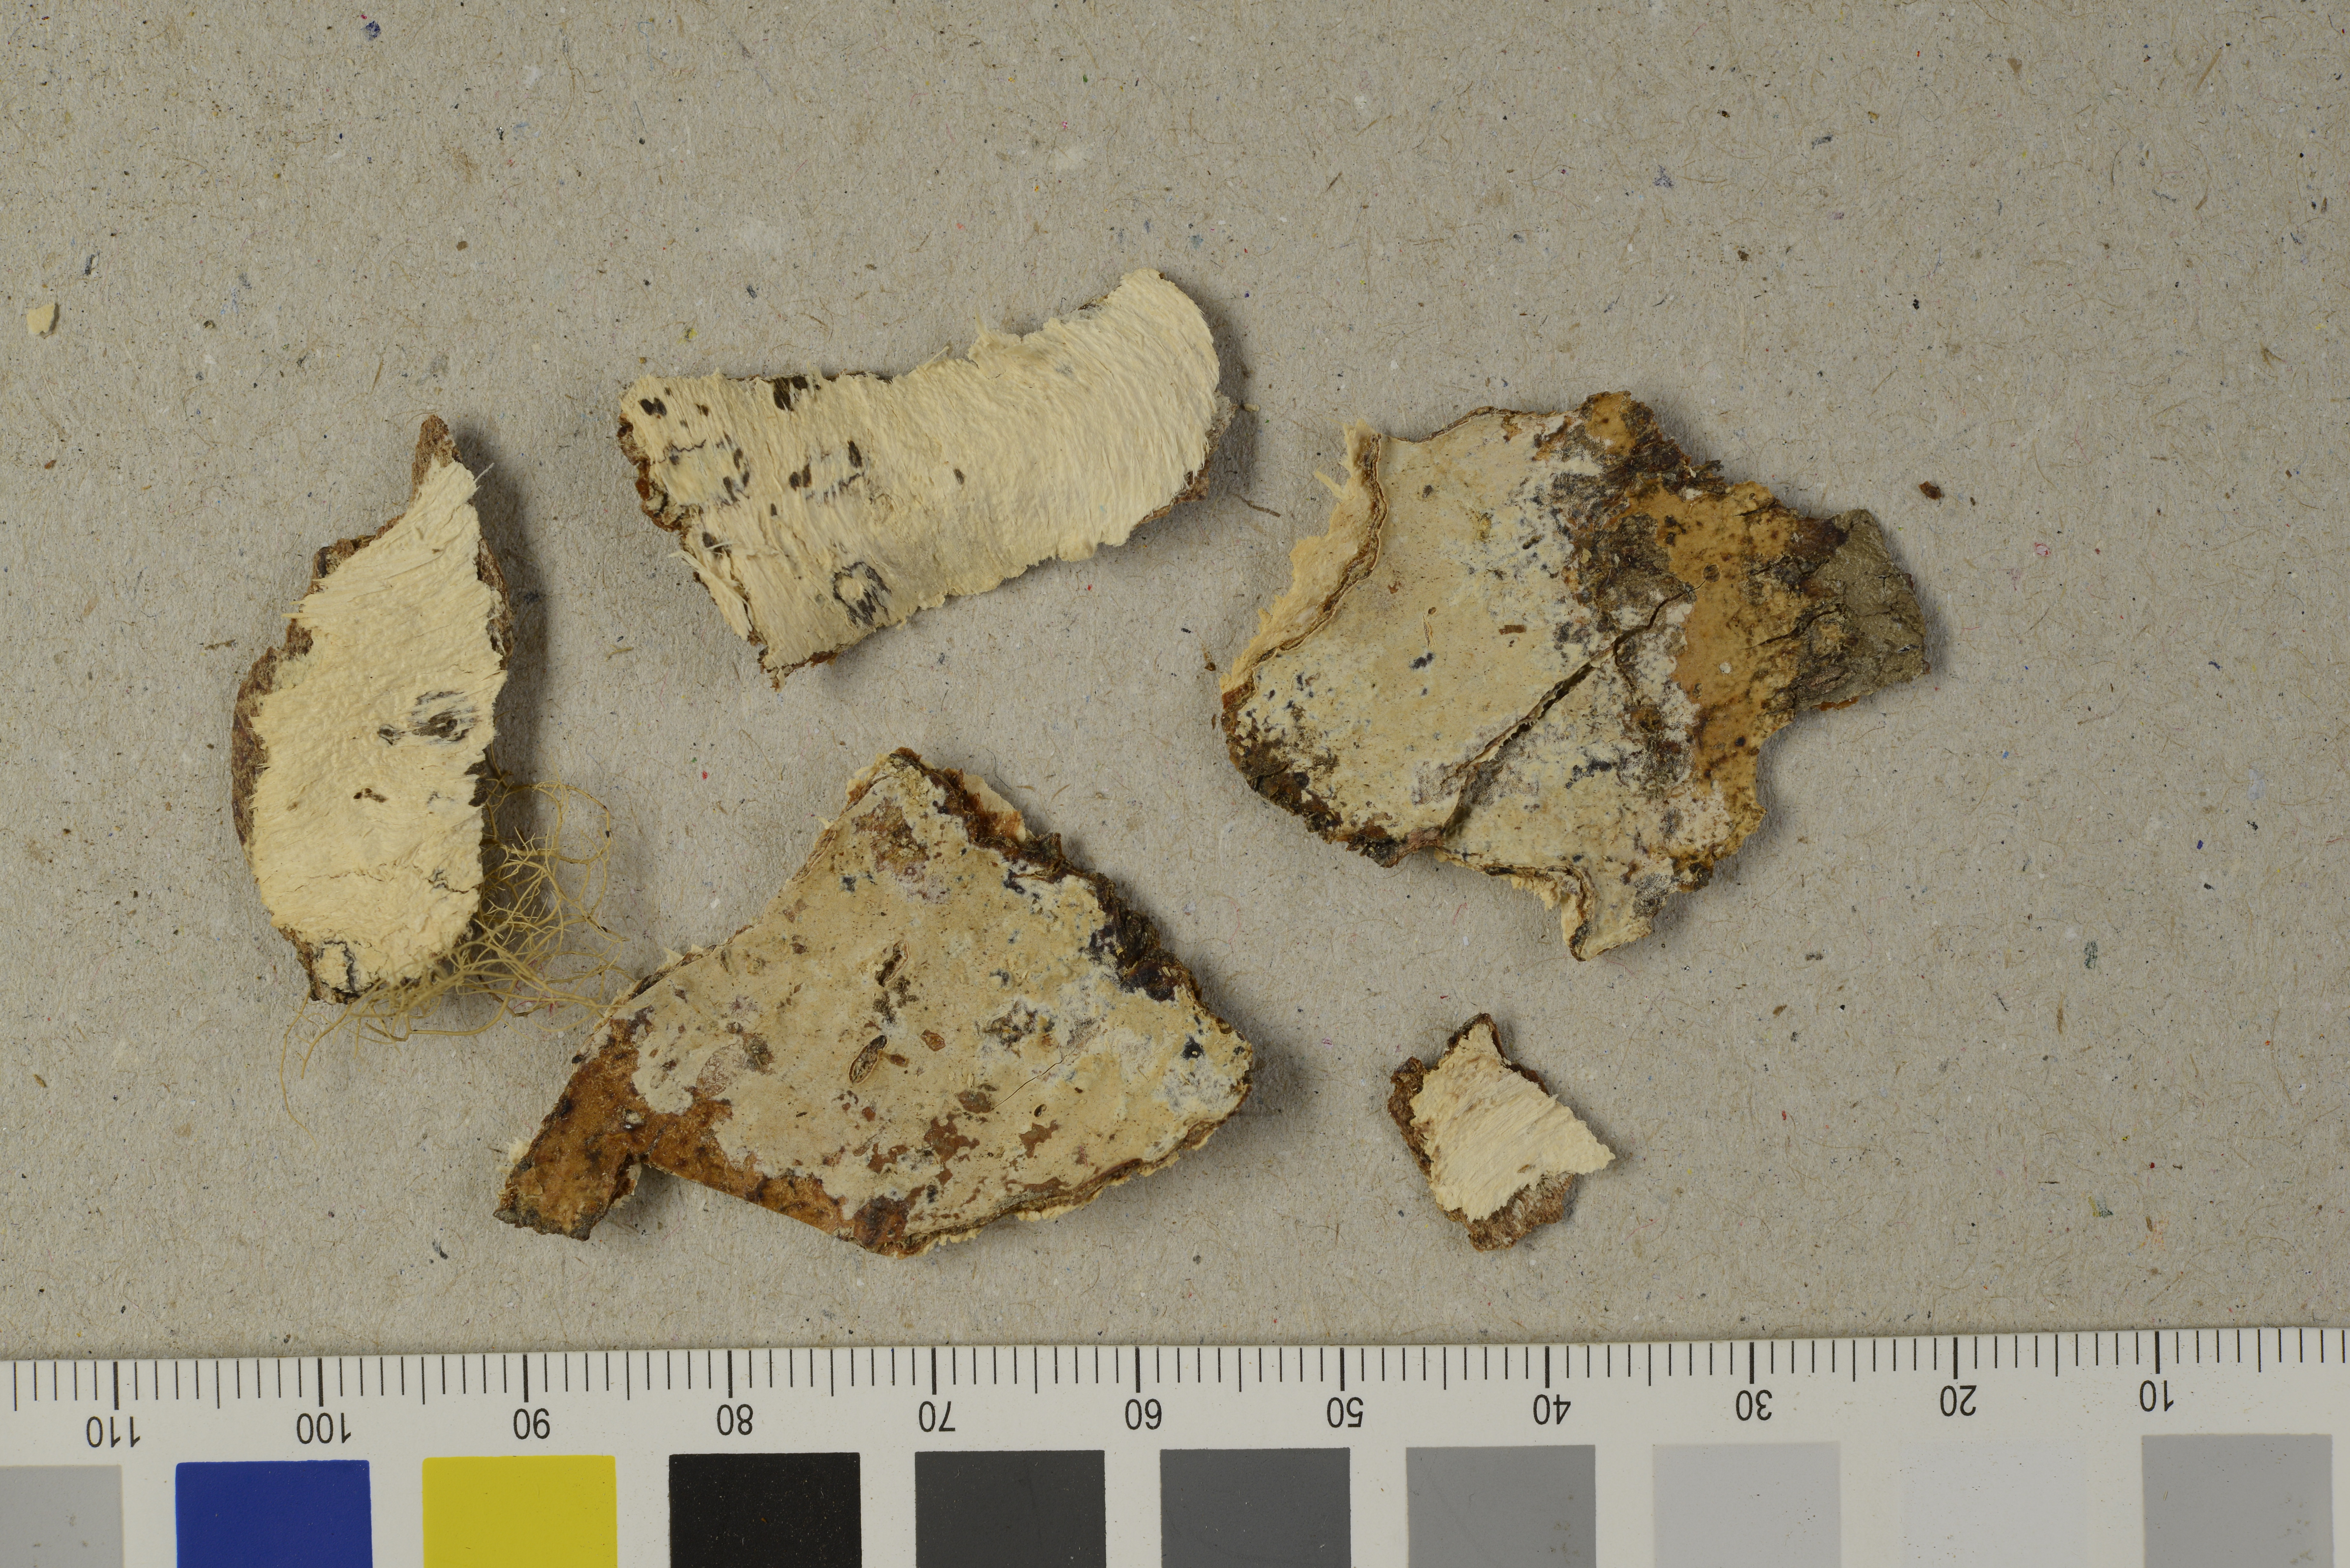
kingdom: Fungi
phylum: Basidiomycota
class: Agaricomycetes
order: Polyporales
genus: Globuliciopsis
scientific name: Globuliciopsis fuegiana
